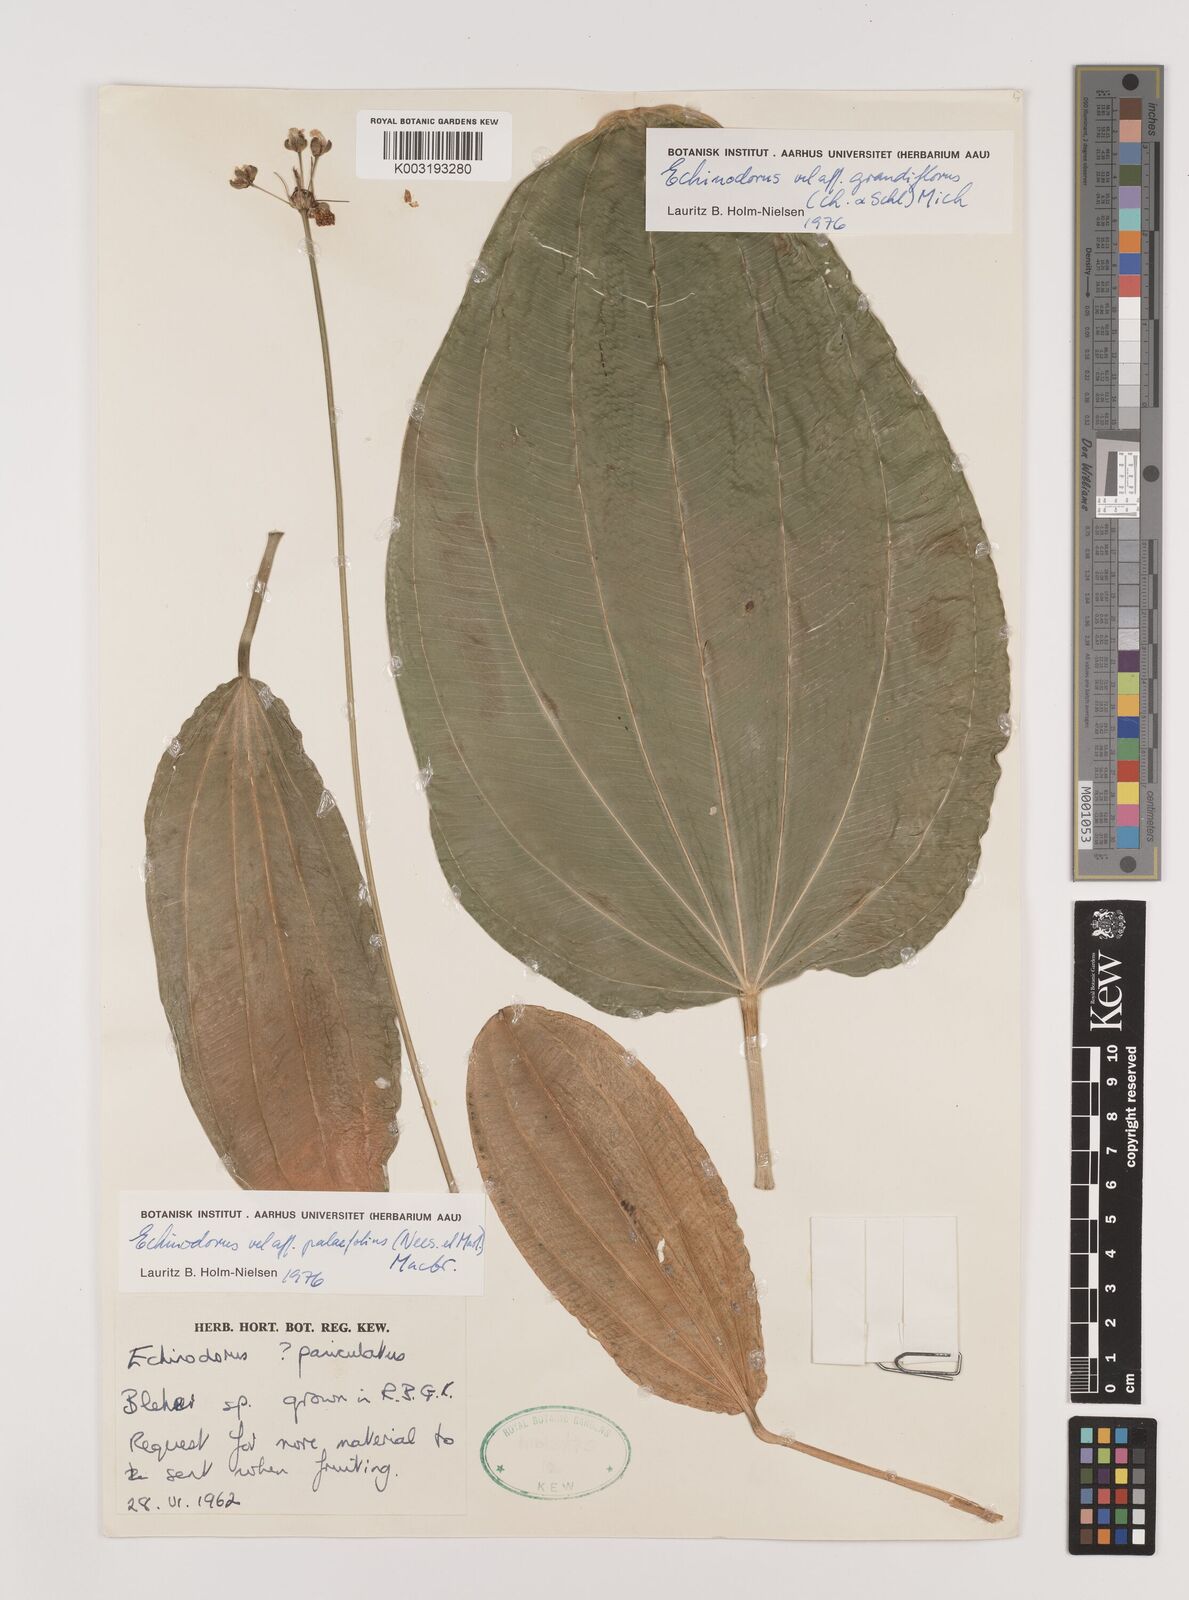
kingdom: Plantae
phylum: Tracheophyta
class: Liliopsida
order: Alismatales
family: Alismataceae
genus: Aquarius
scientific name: Aquarius palifolius
